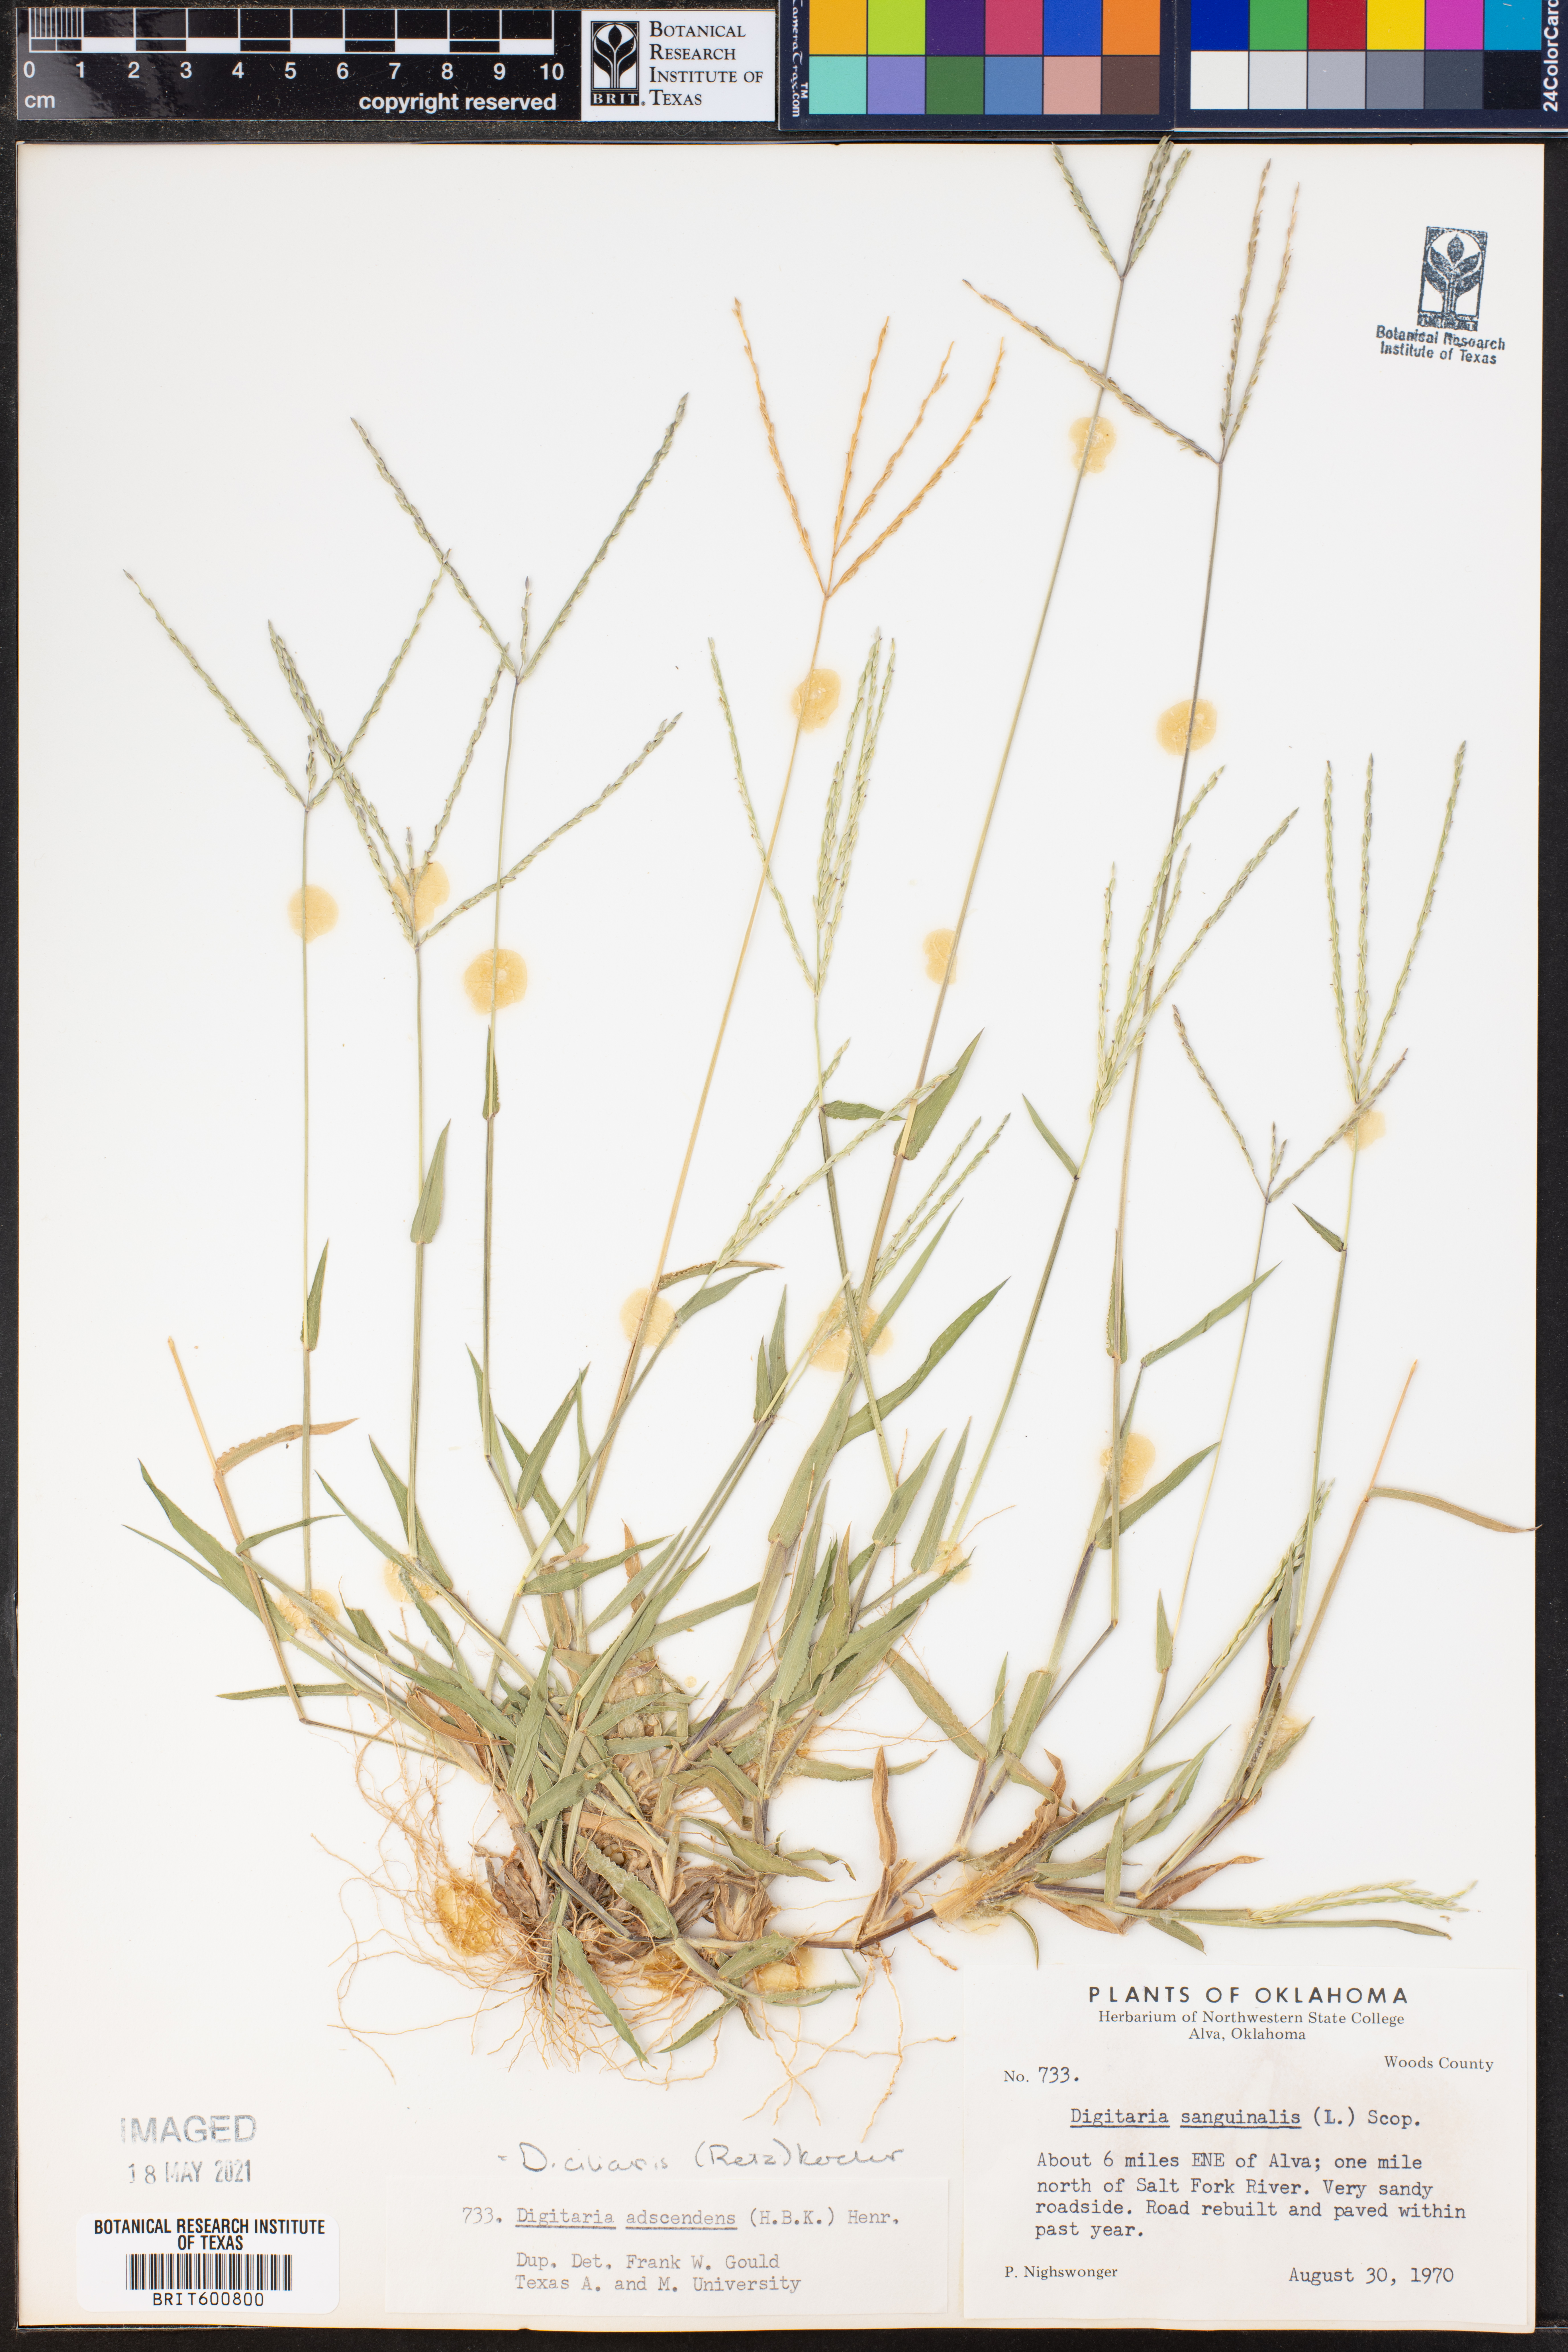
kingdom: Plantae
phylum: Tracheophyta
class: Liliopsida
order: Poales
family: Poaceae
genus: Digitaria
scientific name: Digitaria ciliaris
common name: Tropical finger-grass
